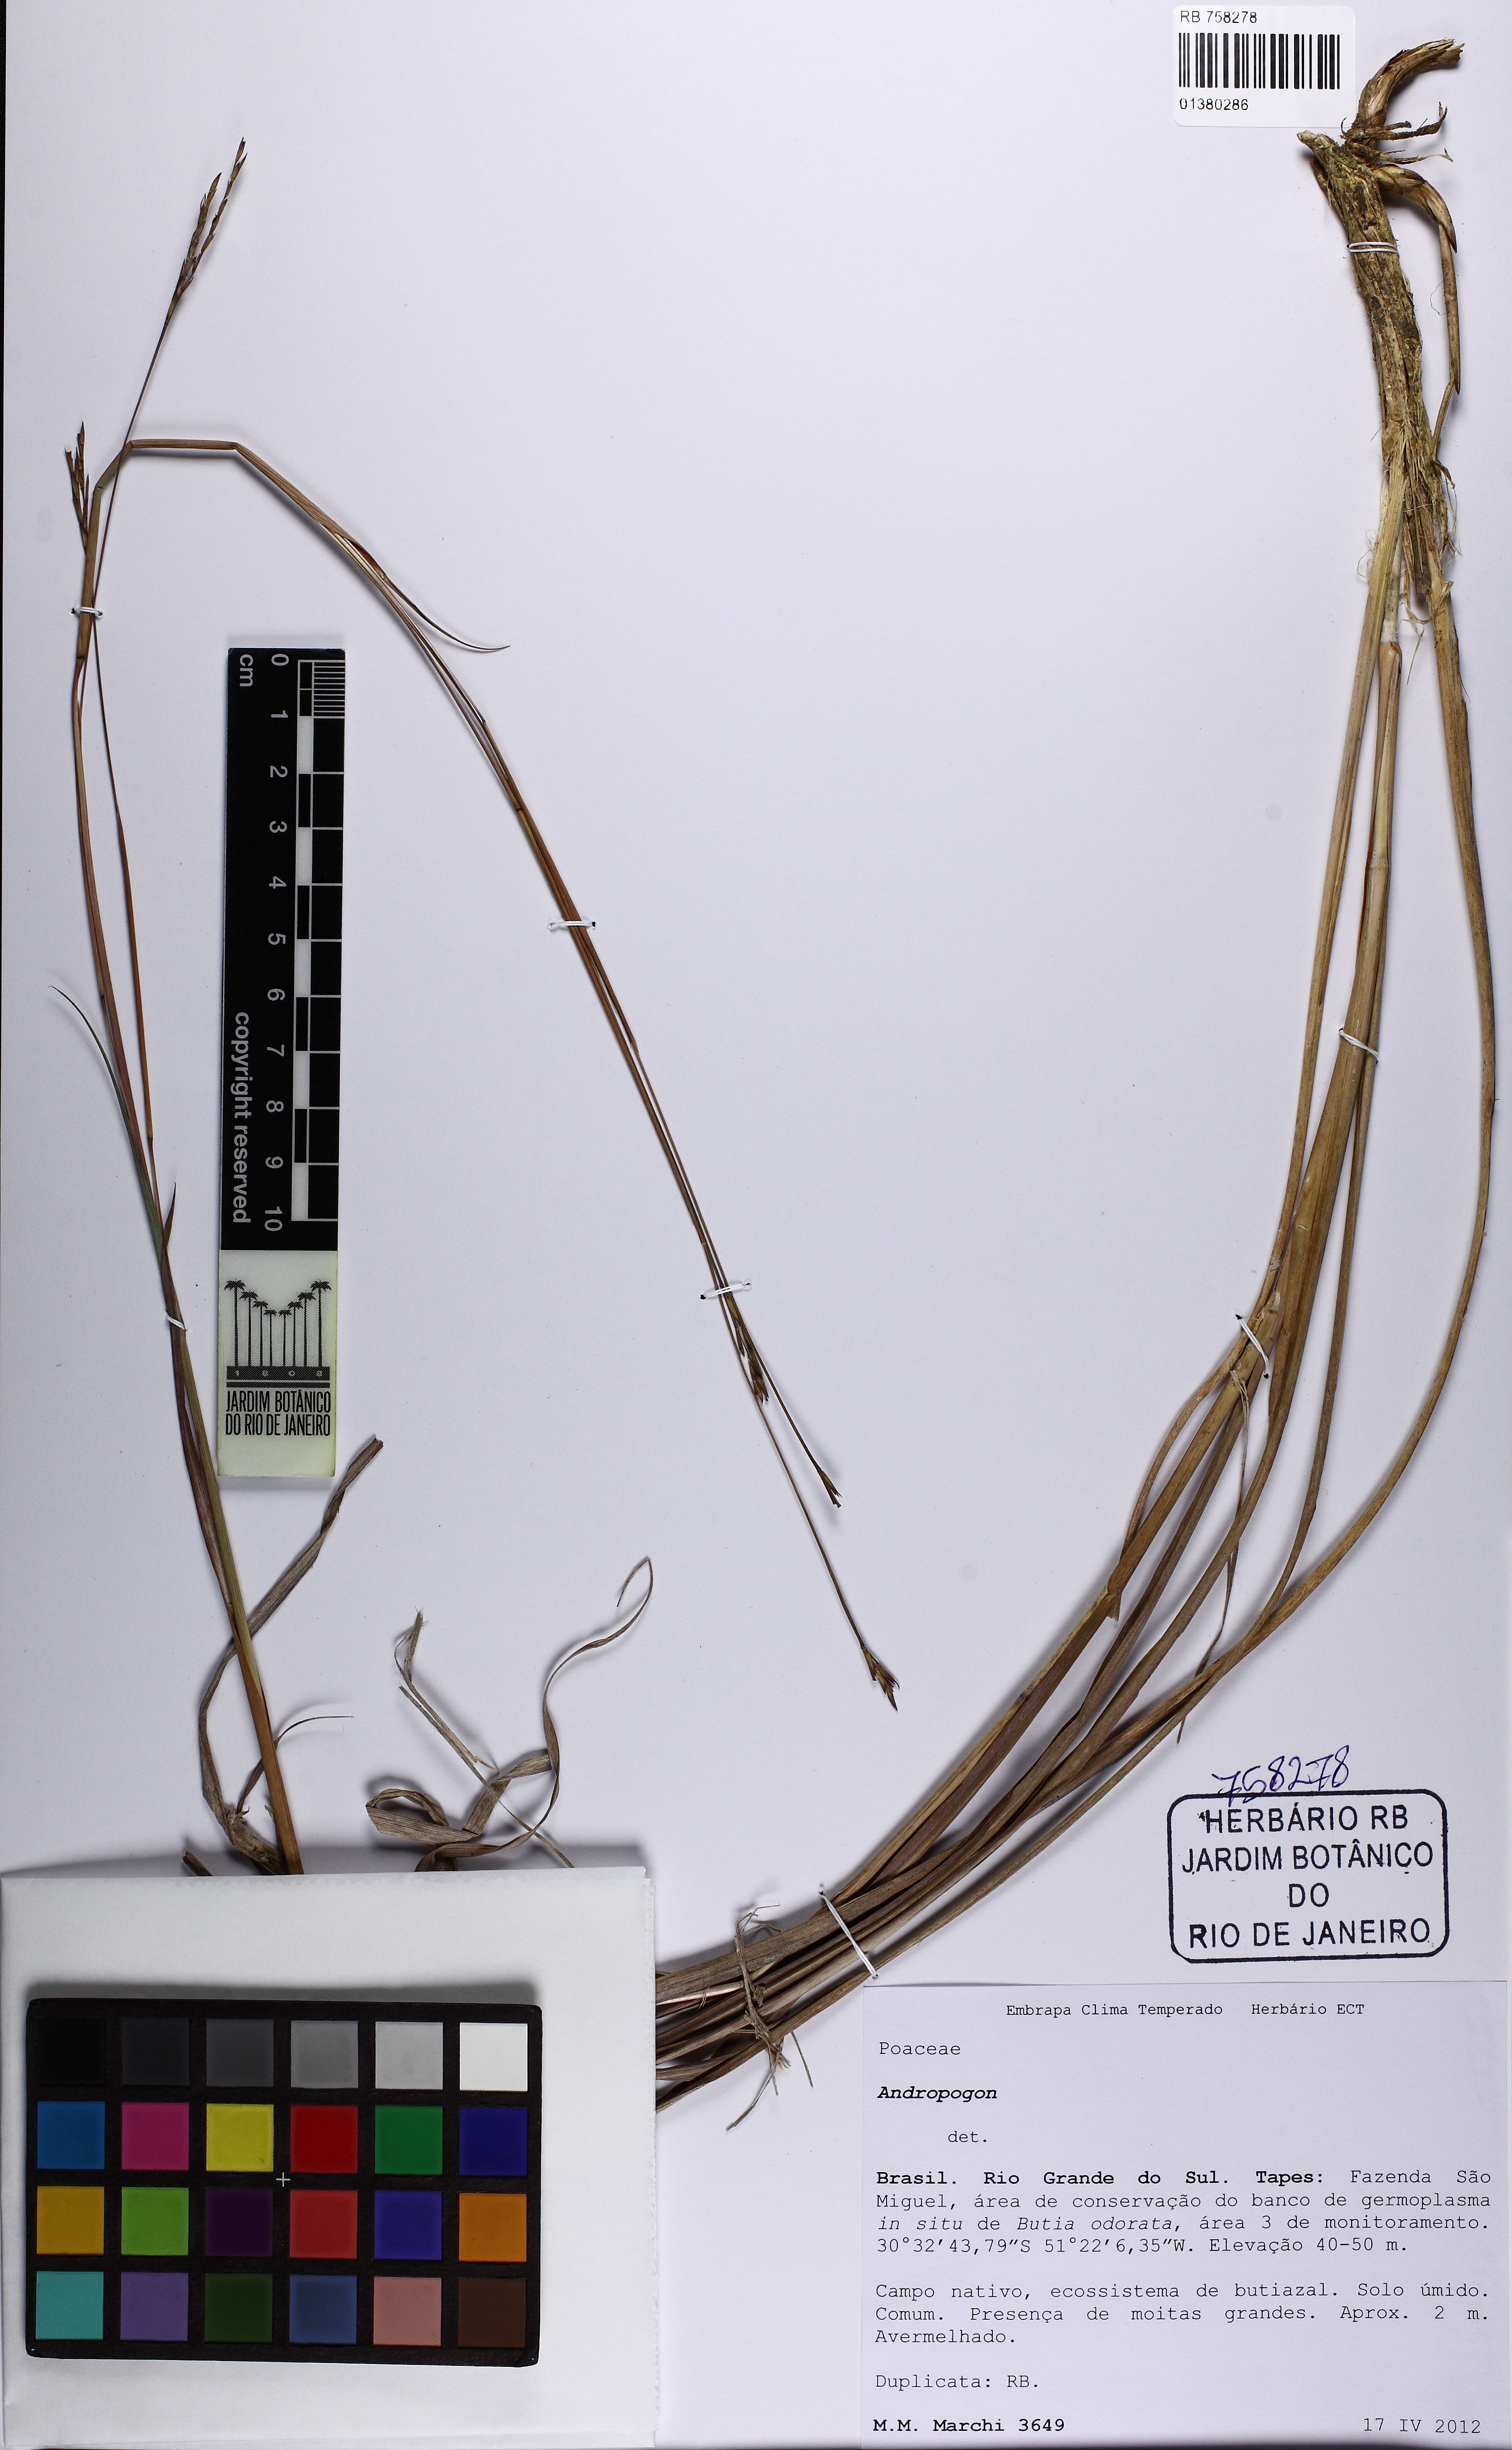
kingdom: Plantae
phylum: Tracheophyta
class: Liliopsida
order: Poales
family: Poaceae
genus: Andropogon
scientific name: Andropogon
